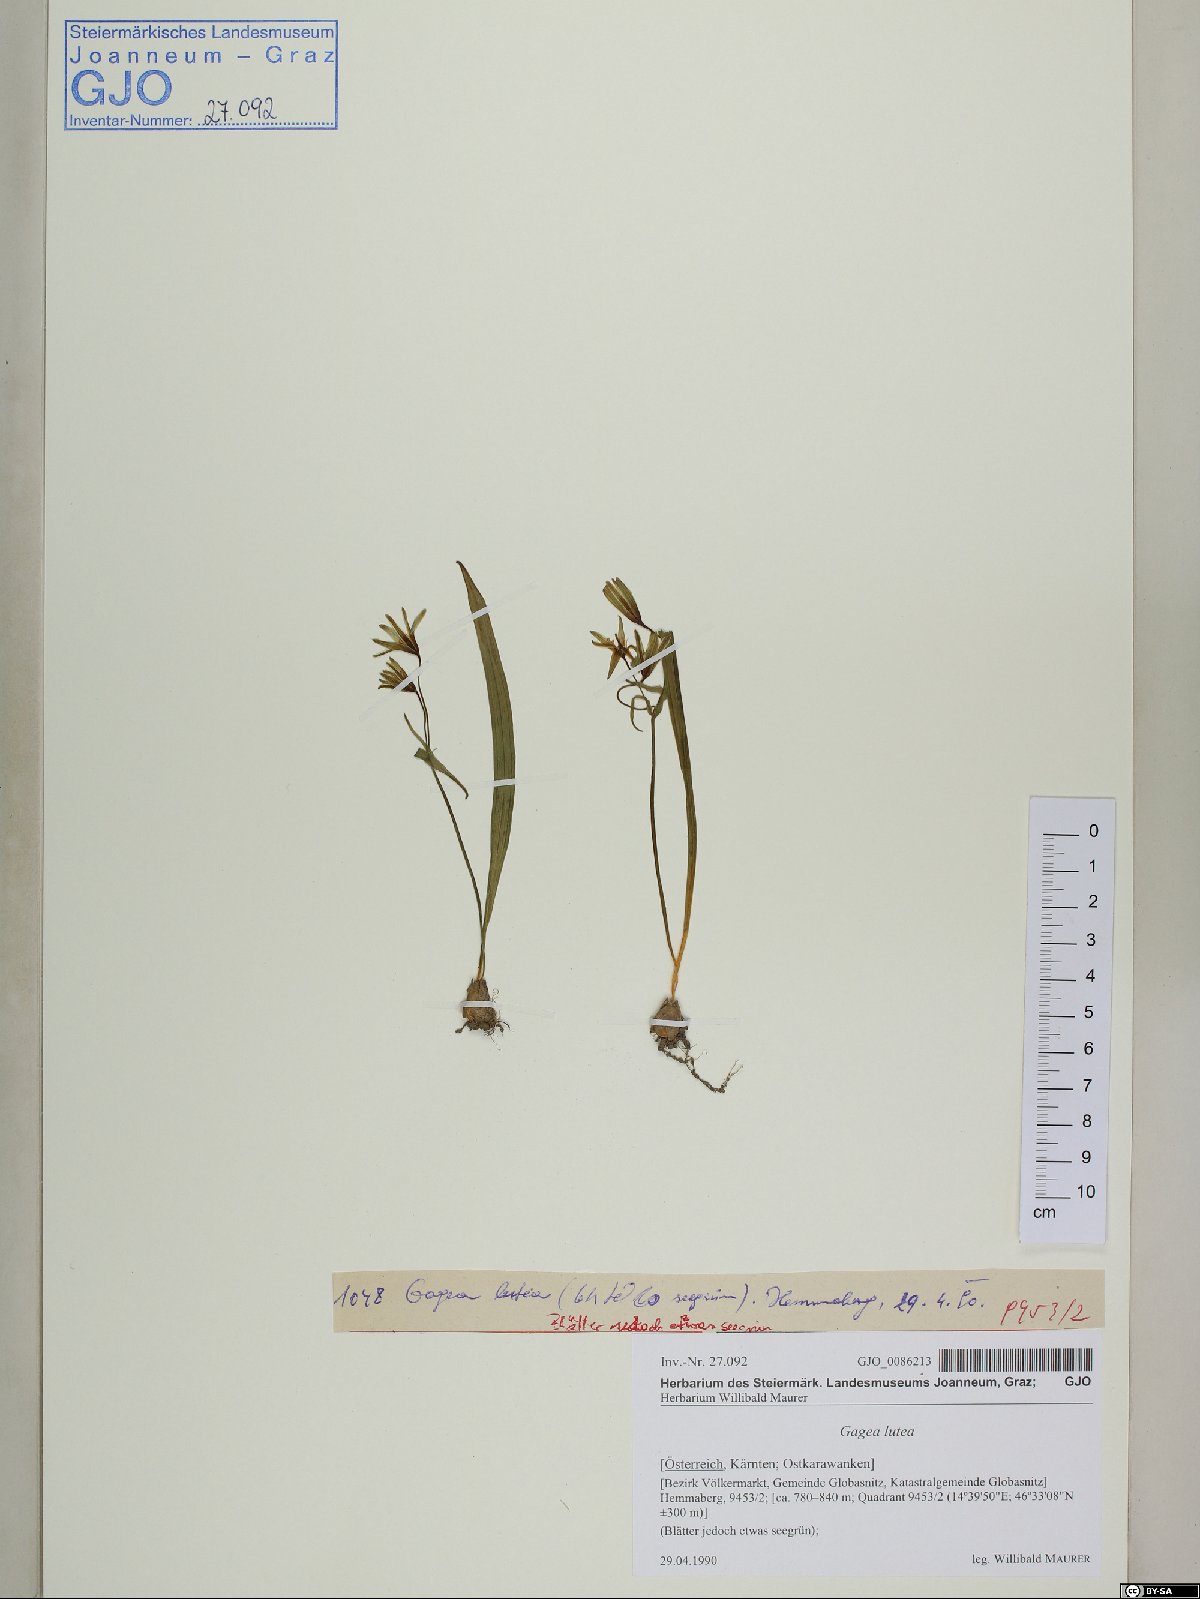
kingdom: Plantae
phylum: Tracheophyta
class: Liliopsida
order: Liliales
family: Liliaceae
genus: Gagea
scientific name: Gagea lutea
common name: Yellow star-of-bethlehem
